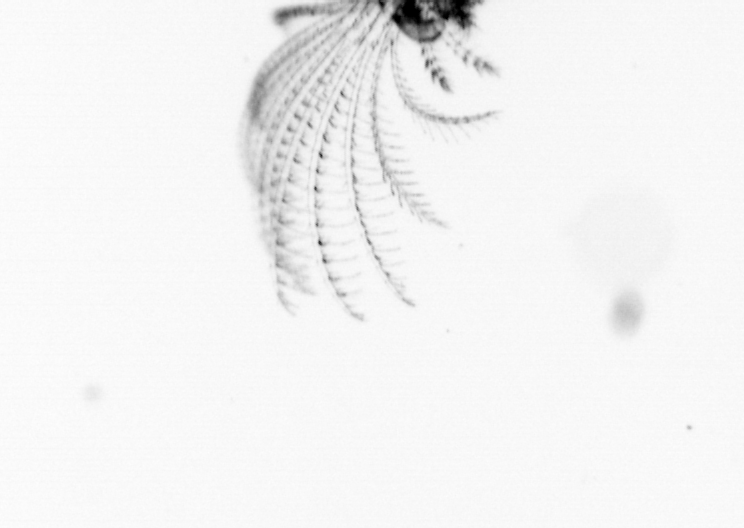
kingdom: Animalia
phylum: Arthropoda
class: Maxillopoda
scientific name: Maxillopoda
